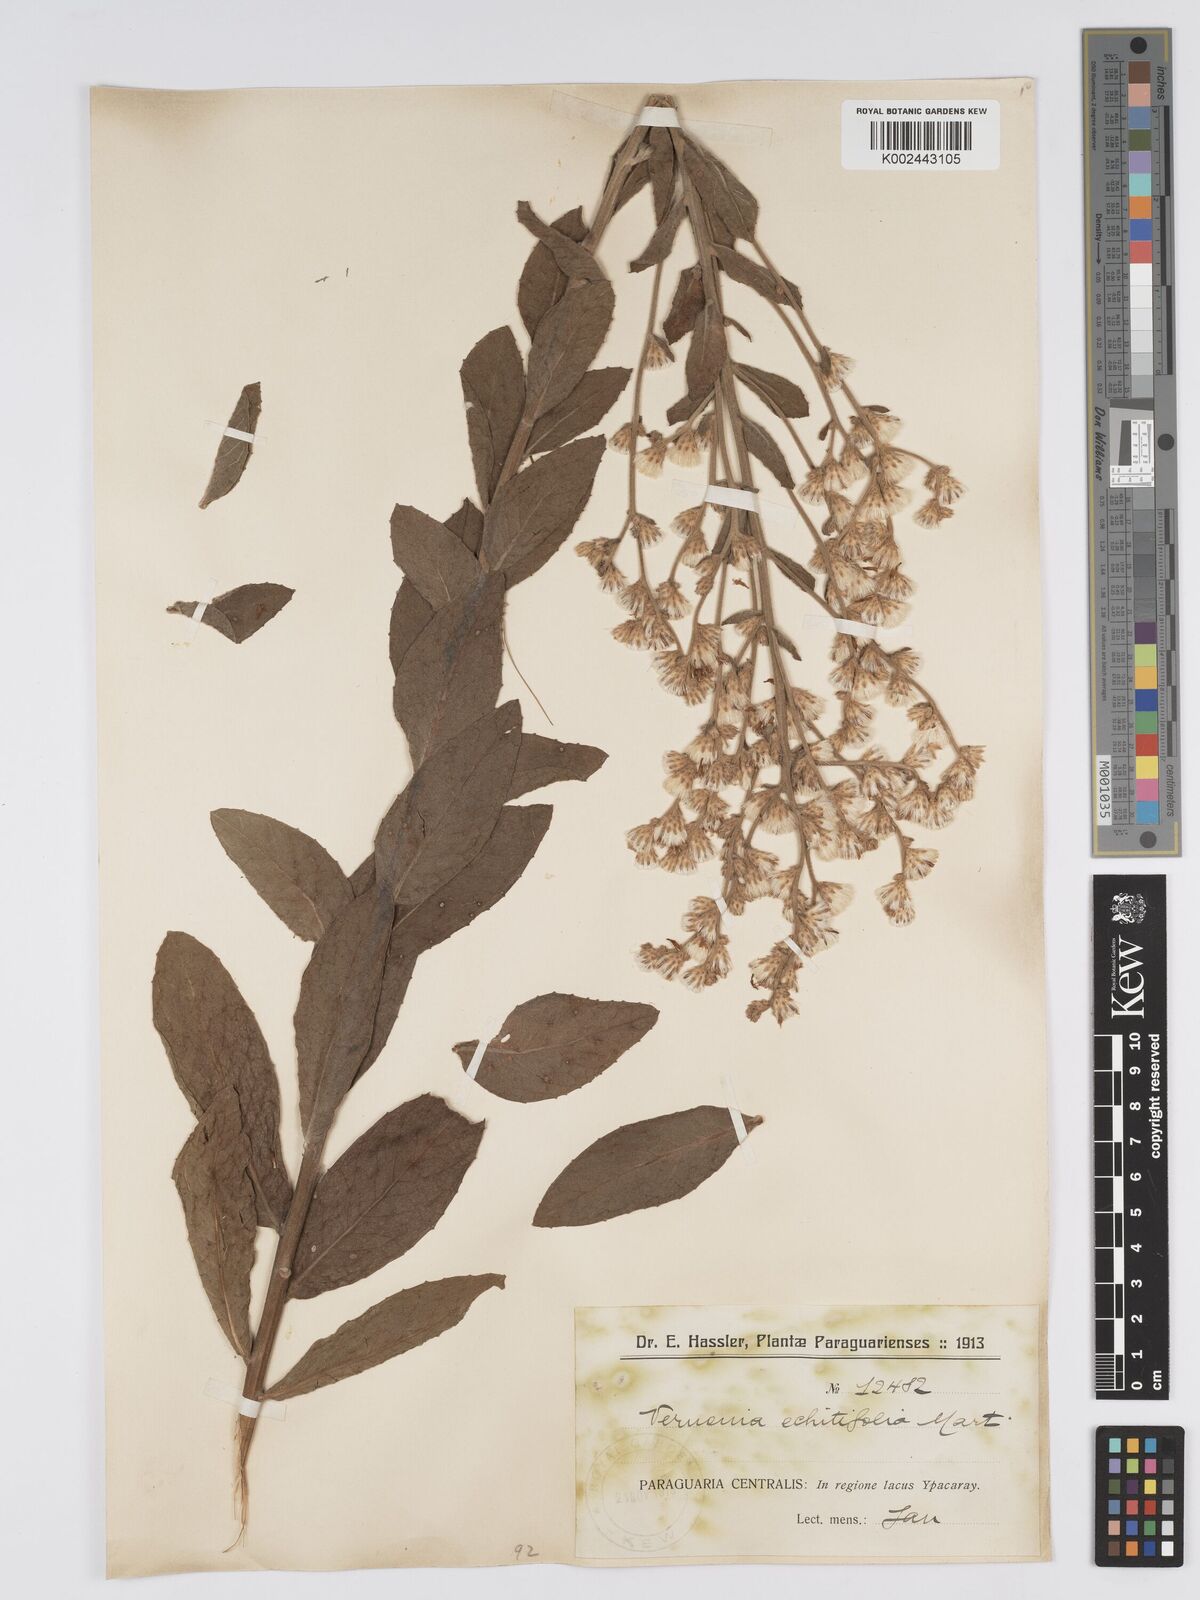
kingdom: Plantae
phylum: Tracheophyta
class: Magnoliopsida
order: Asterales
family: Asteraceae
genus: Acilepidopsis
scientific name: Acilepidopsis echitifolia
